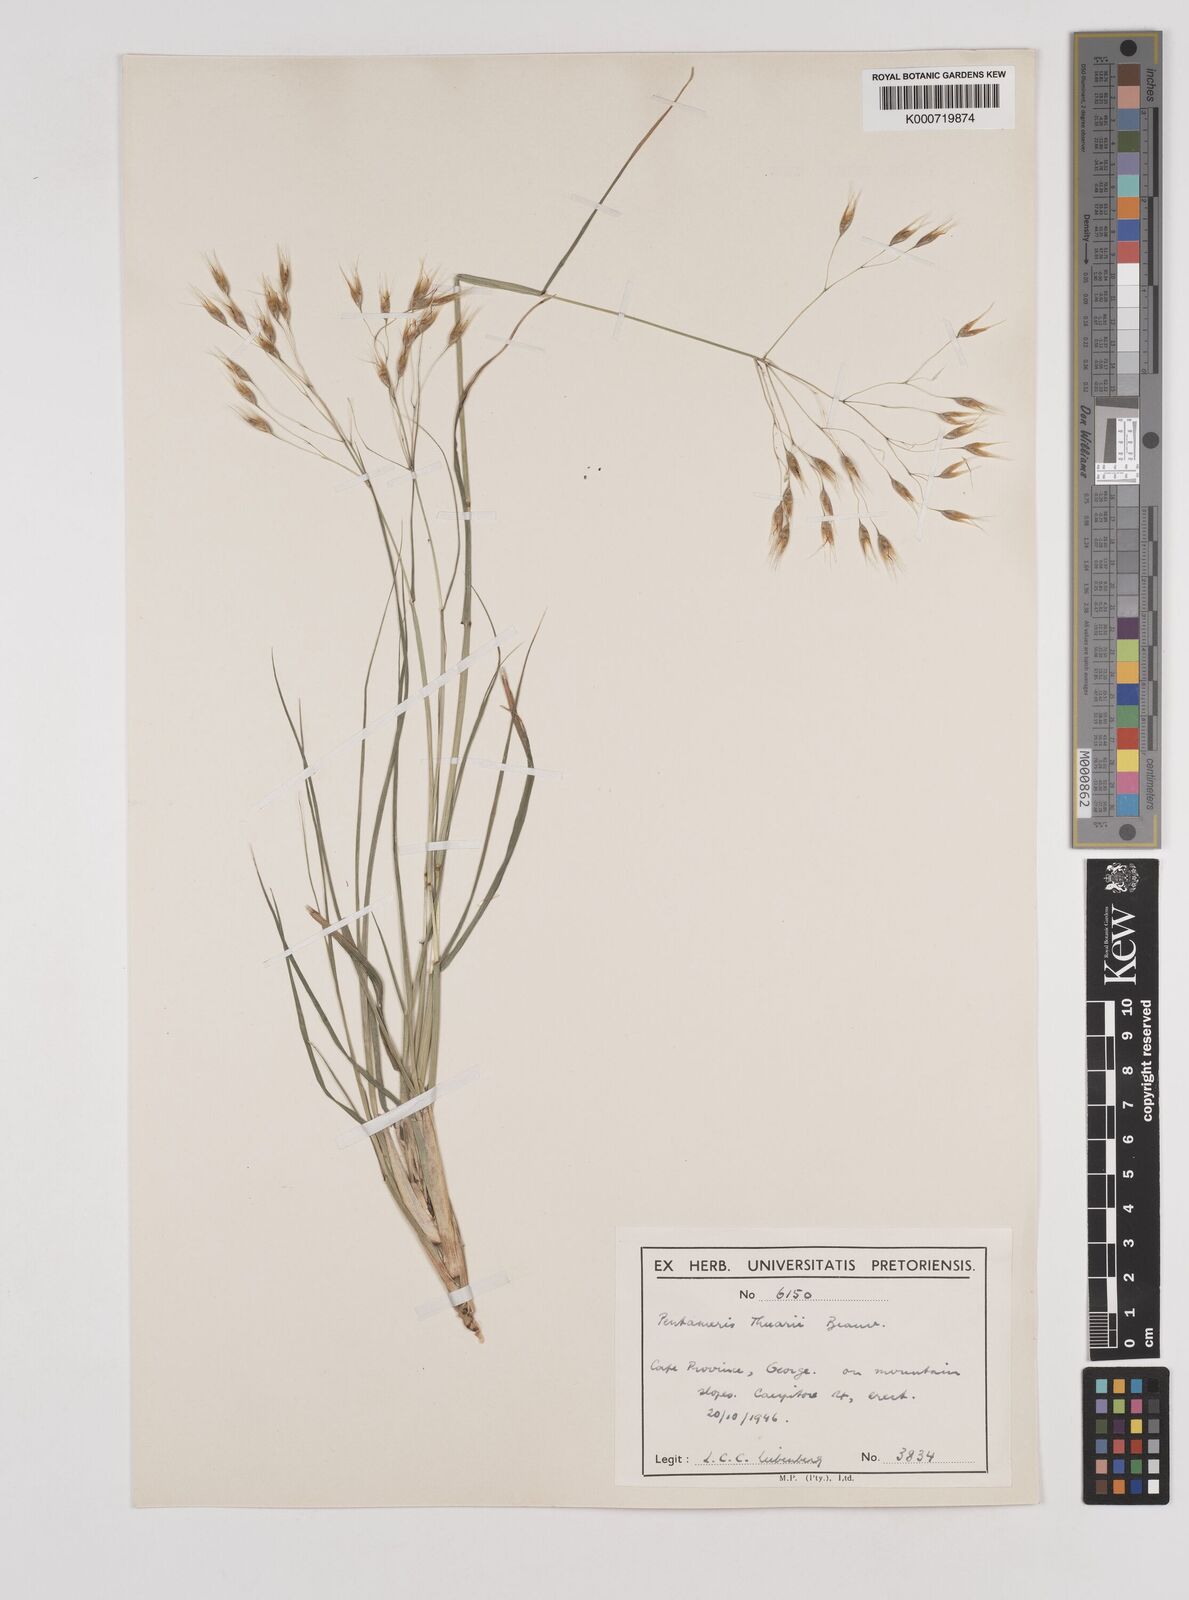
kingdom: Plantae
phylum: Tracheophyta
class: Liliopsida
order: Poales
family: Poaceae
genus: Pentameris
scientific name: Pentameris thuarii
